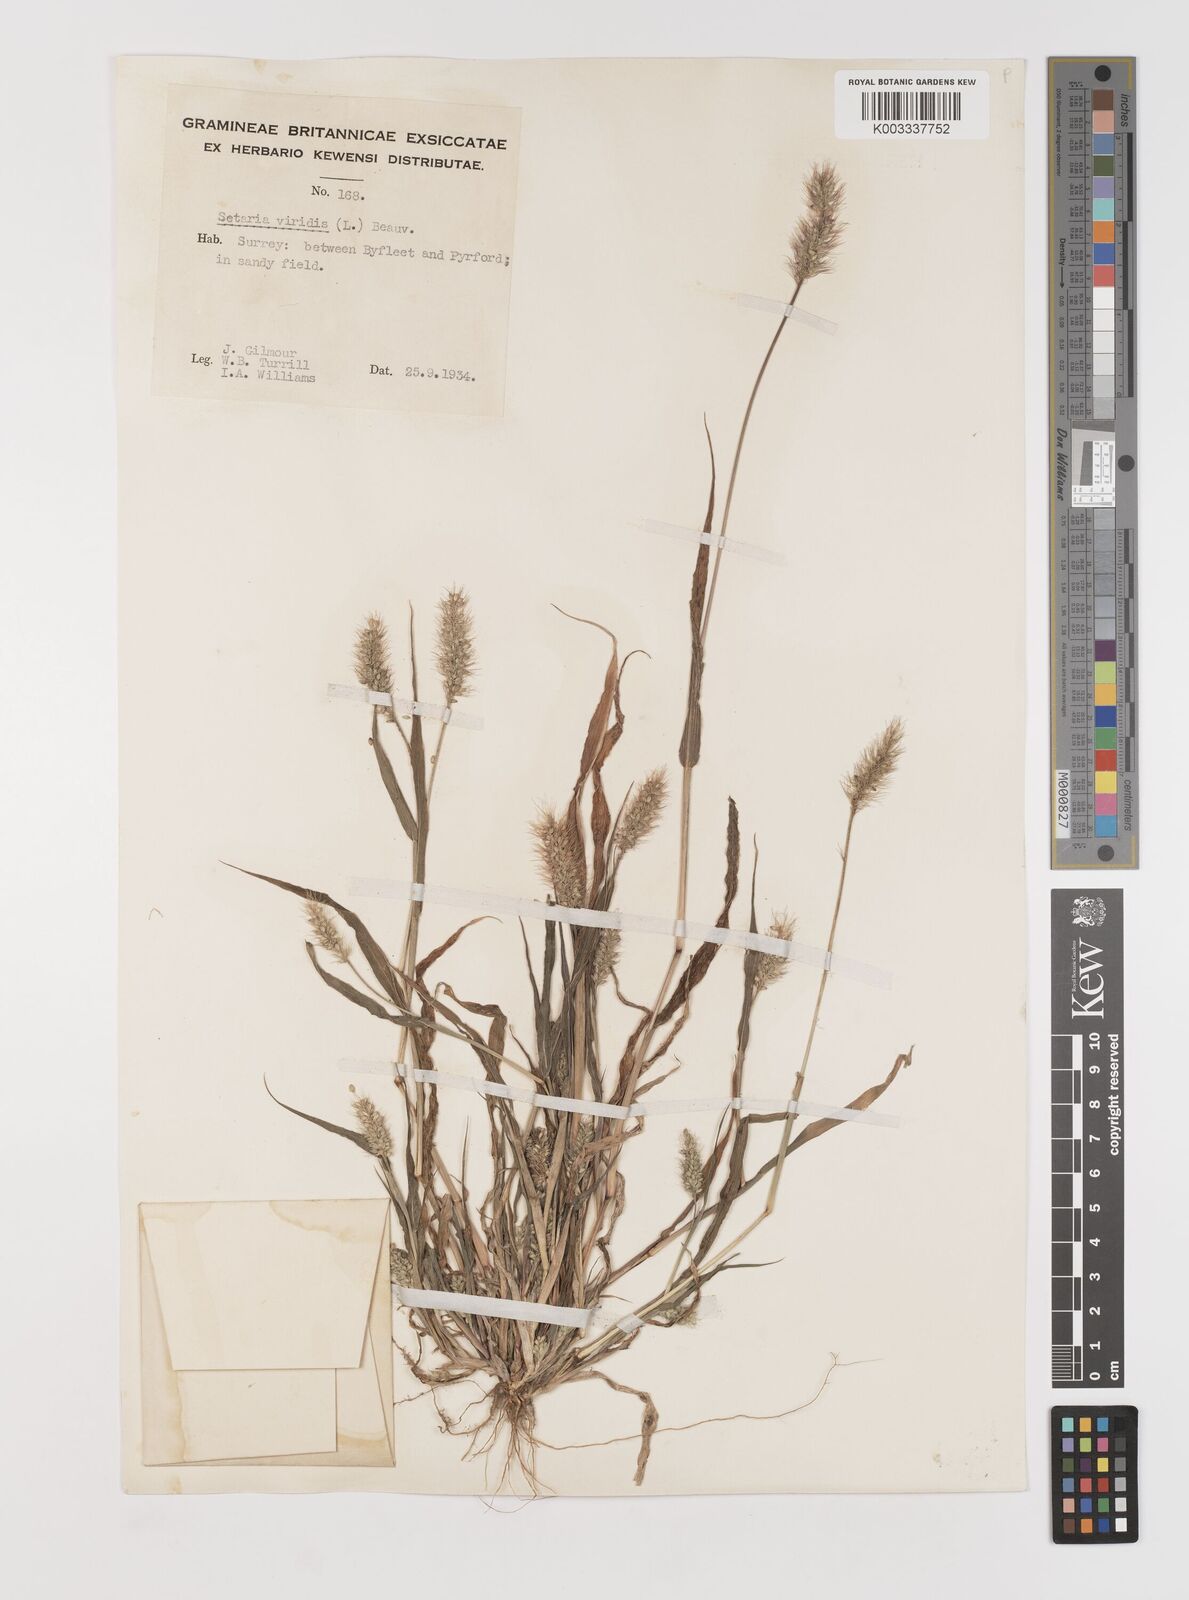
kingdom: Plantae
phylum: Tracheophyta
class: Liliopsida
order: Poales
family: Poaceae
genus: Setaria
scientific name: Setaria viridis
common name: Green bristlegrass
